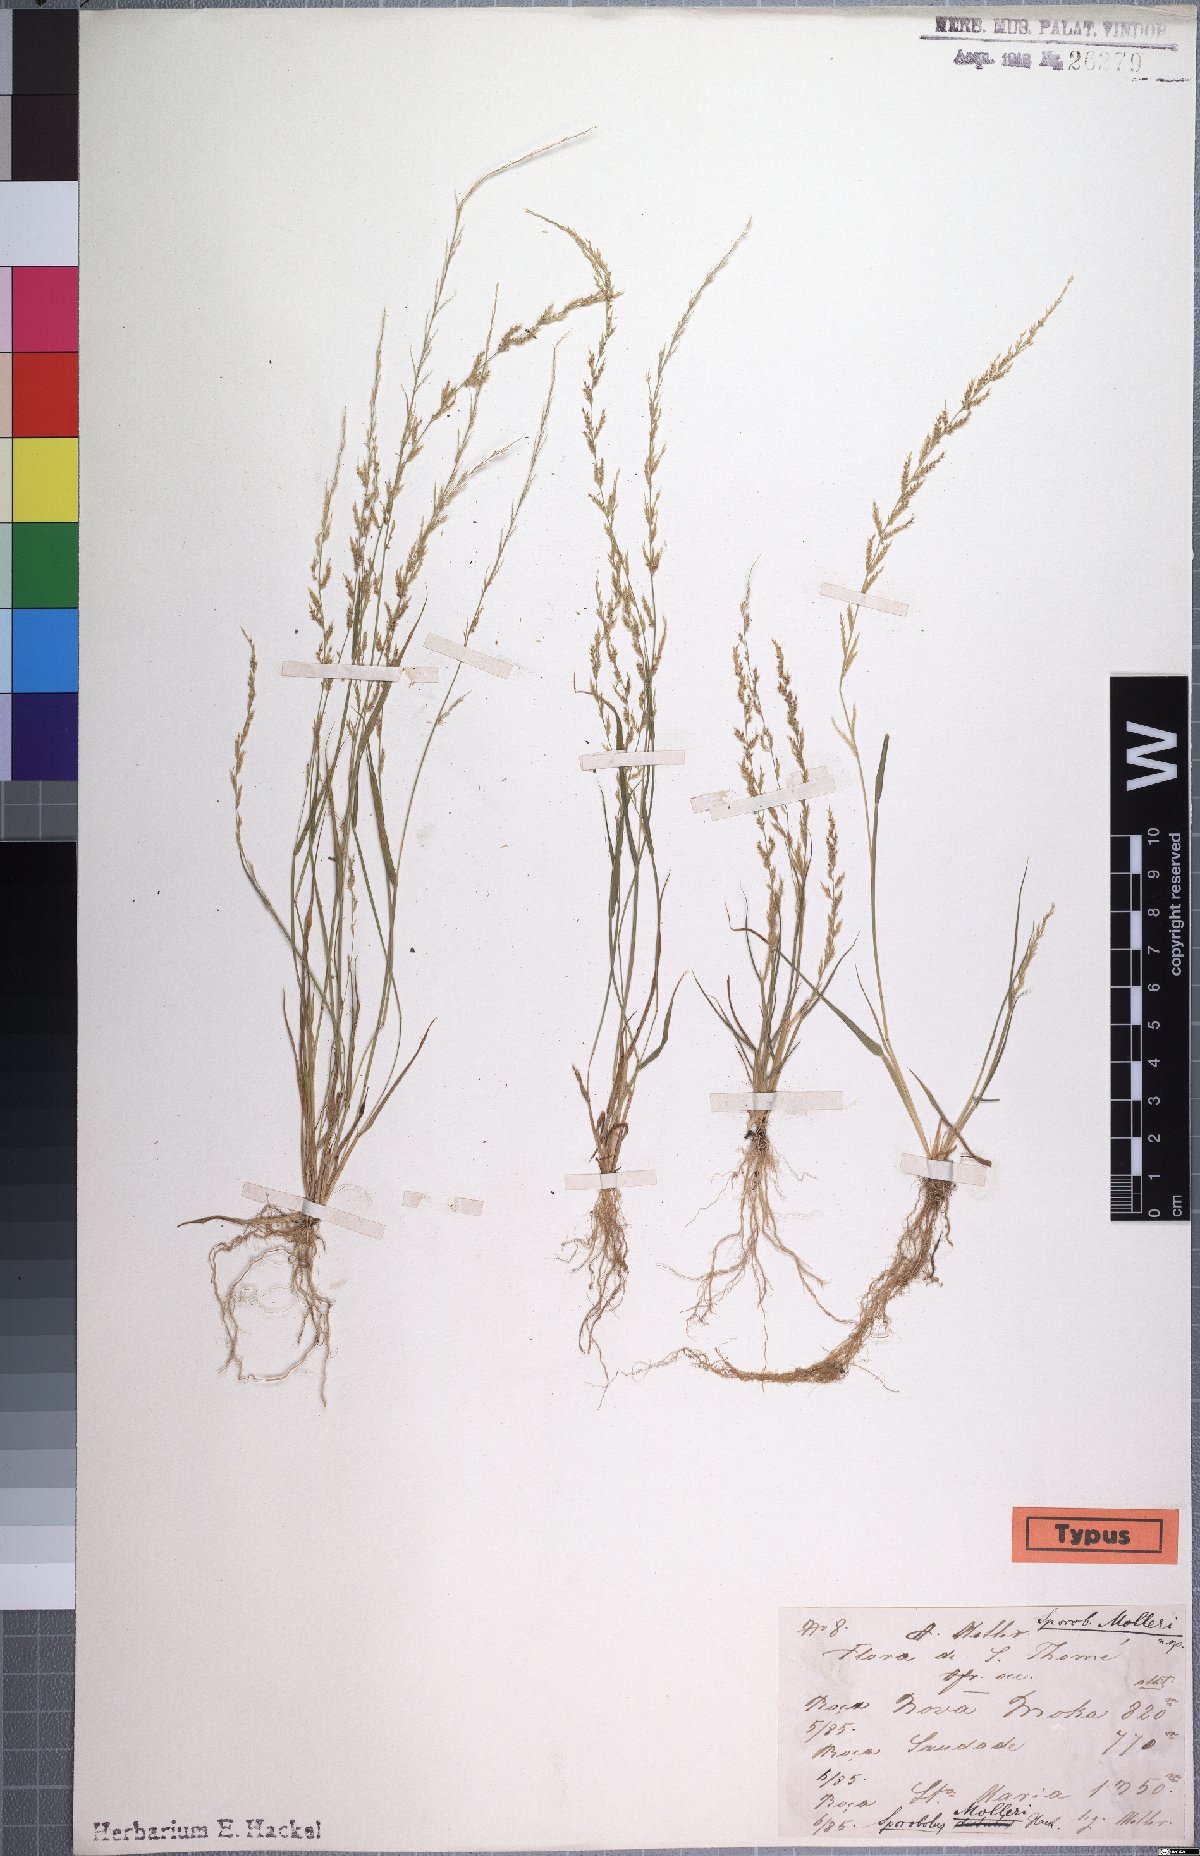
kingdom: Plantae
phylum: Tracheophyta
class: Liliopsida
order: Poales
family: Poaceae
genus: Sporobolus
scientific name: Sporobolus molleri
